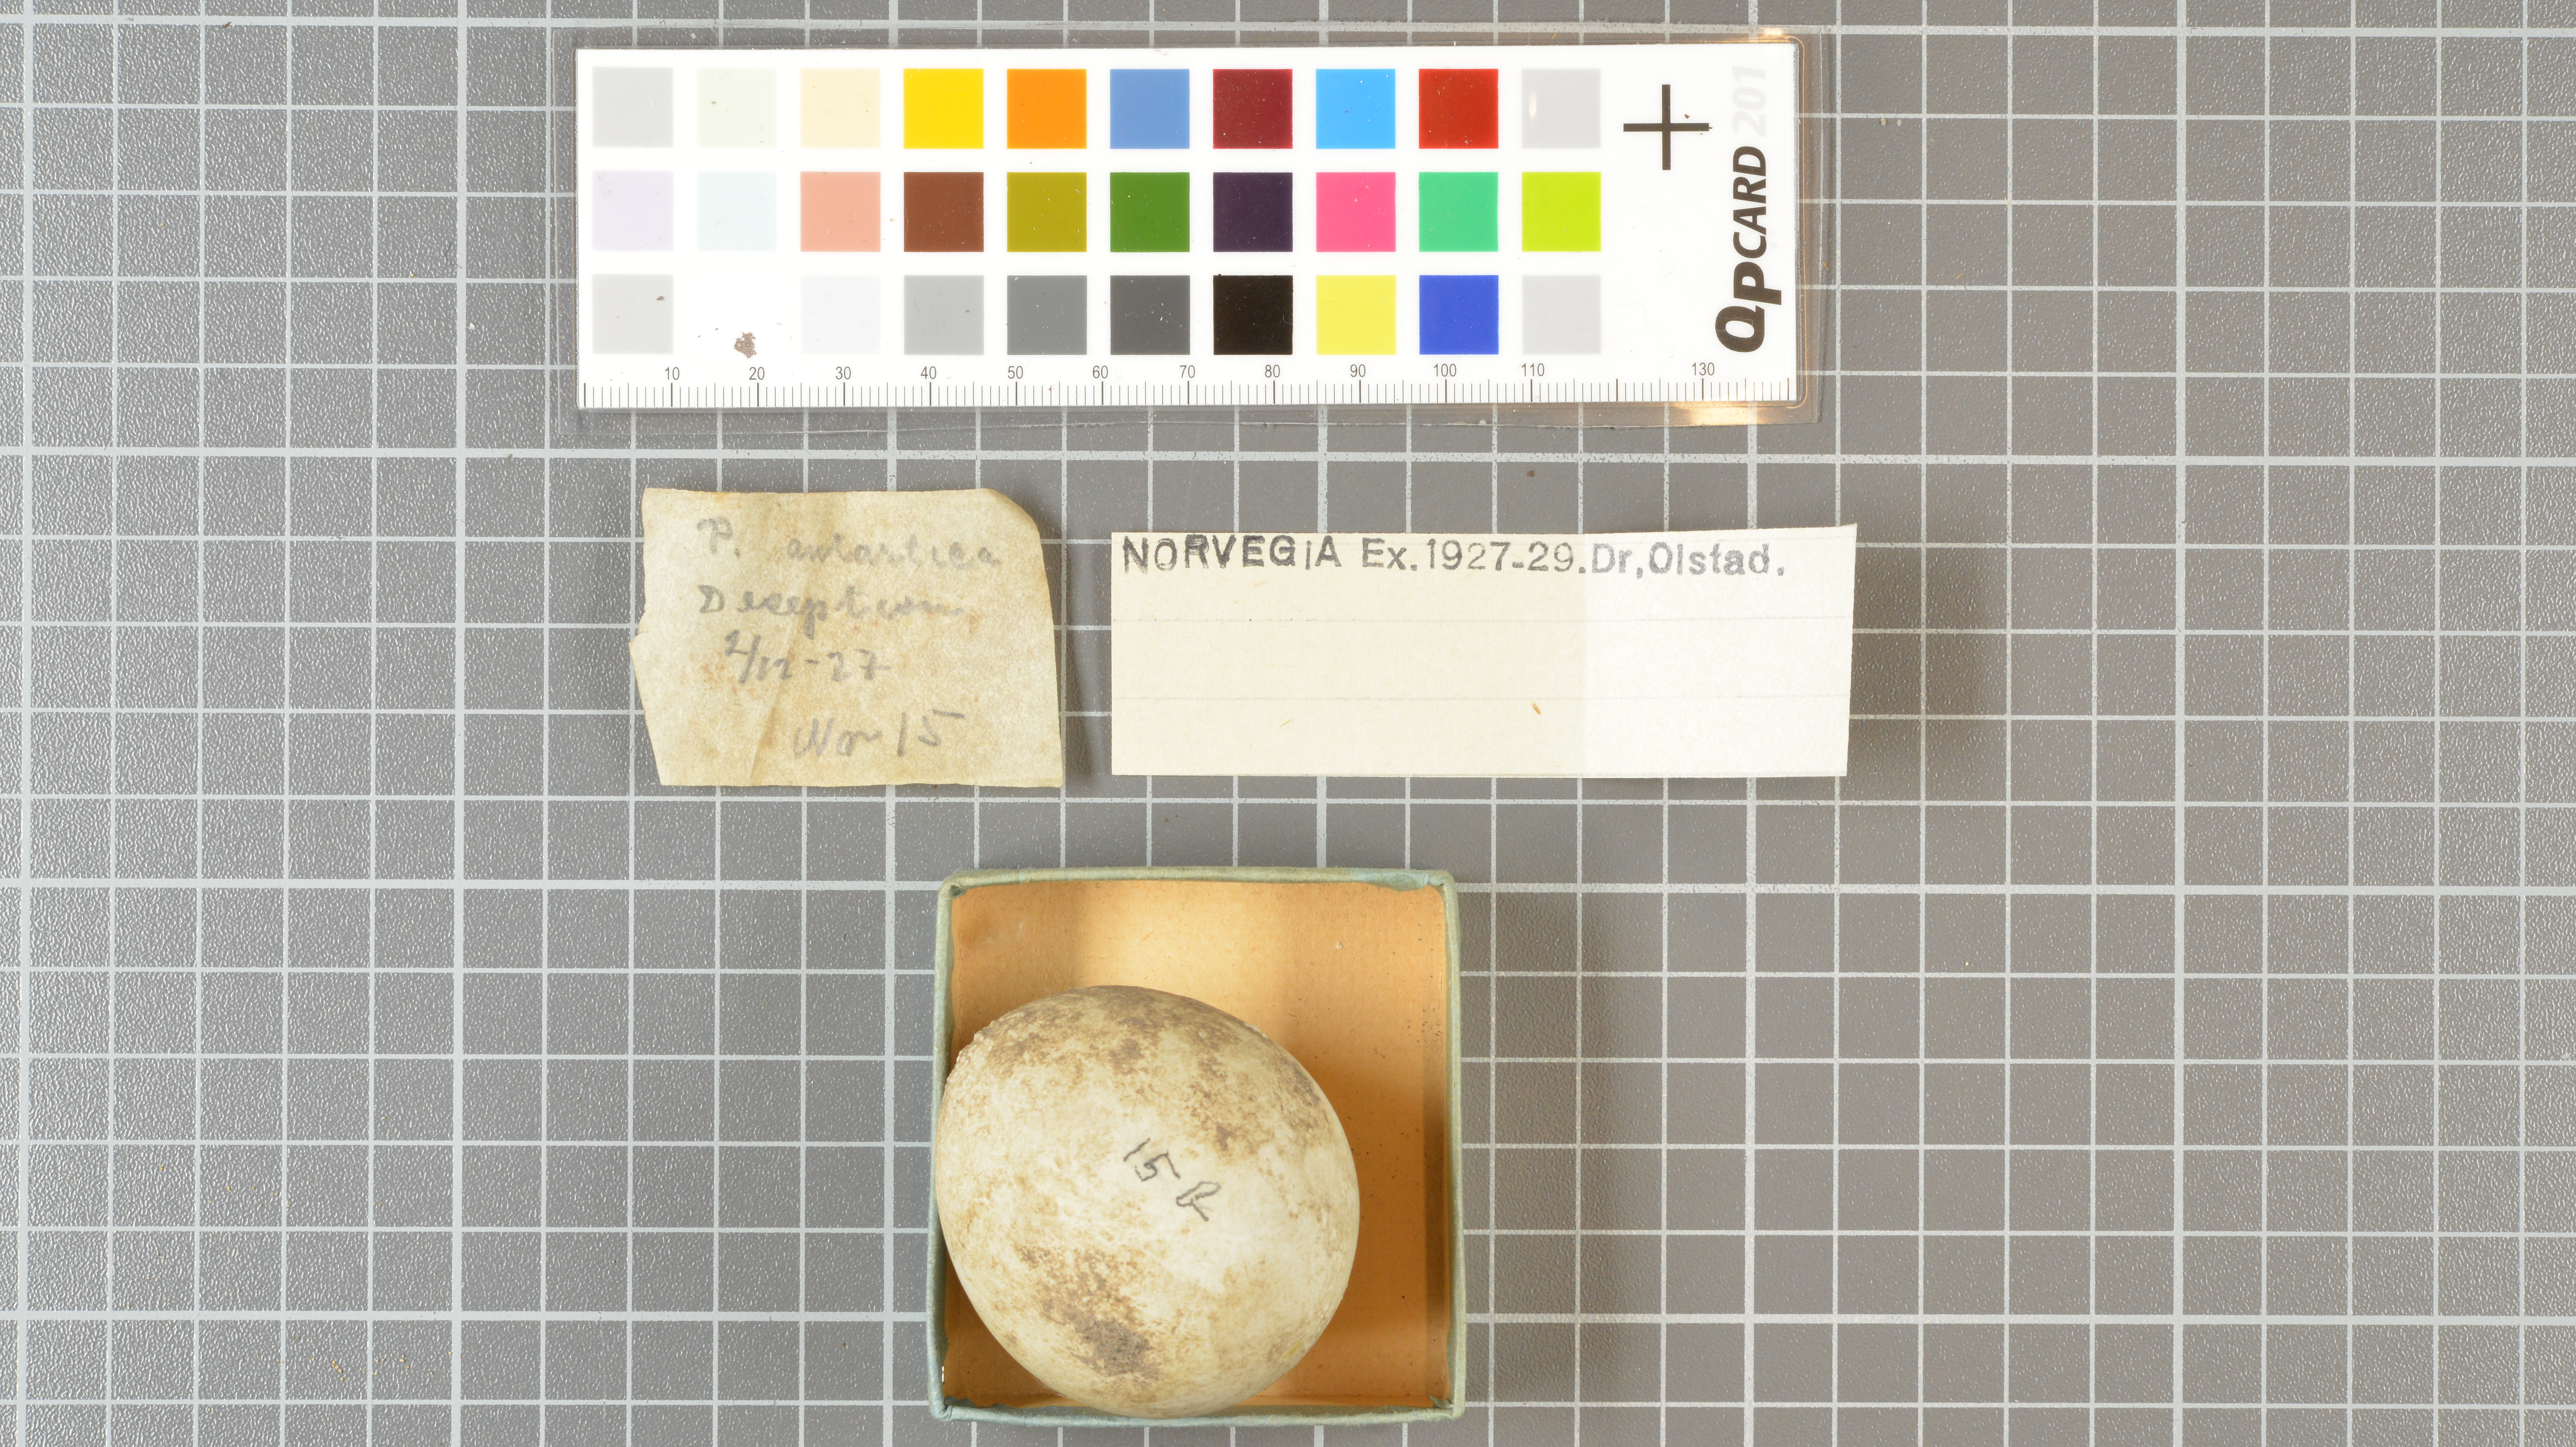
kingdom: Animalia
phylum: Chordata
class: Aves
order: Sphenisciformes
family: Spheniscidae
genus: Pygoscelis
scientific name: Pygoscelis antarcticus
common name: Chinstrap penguin
